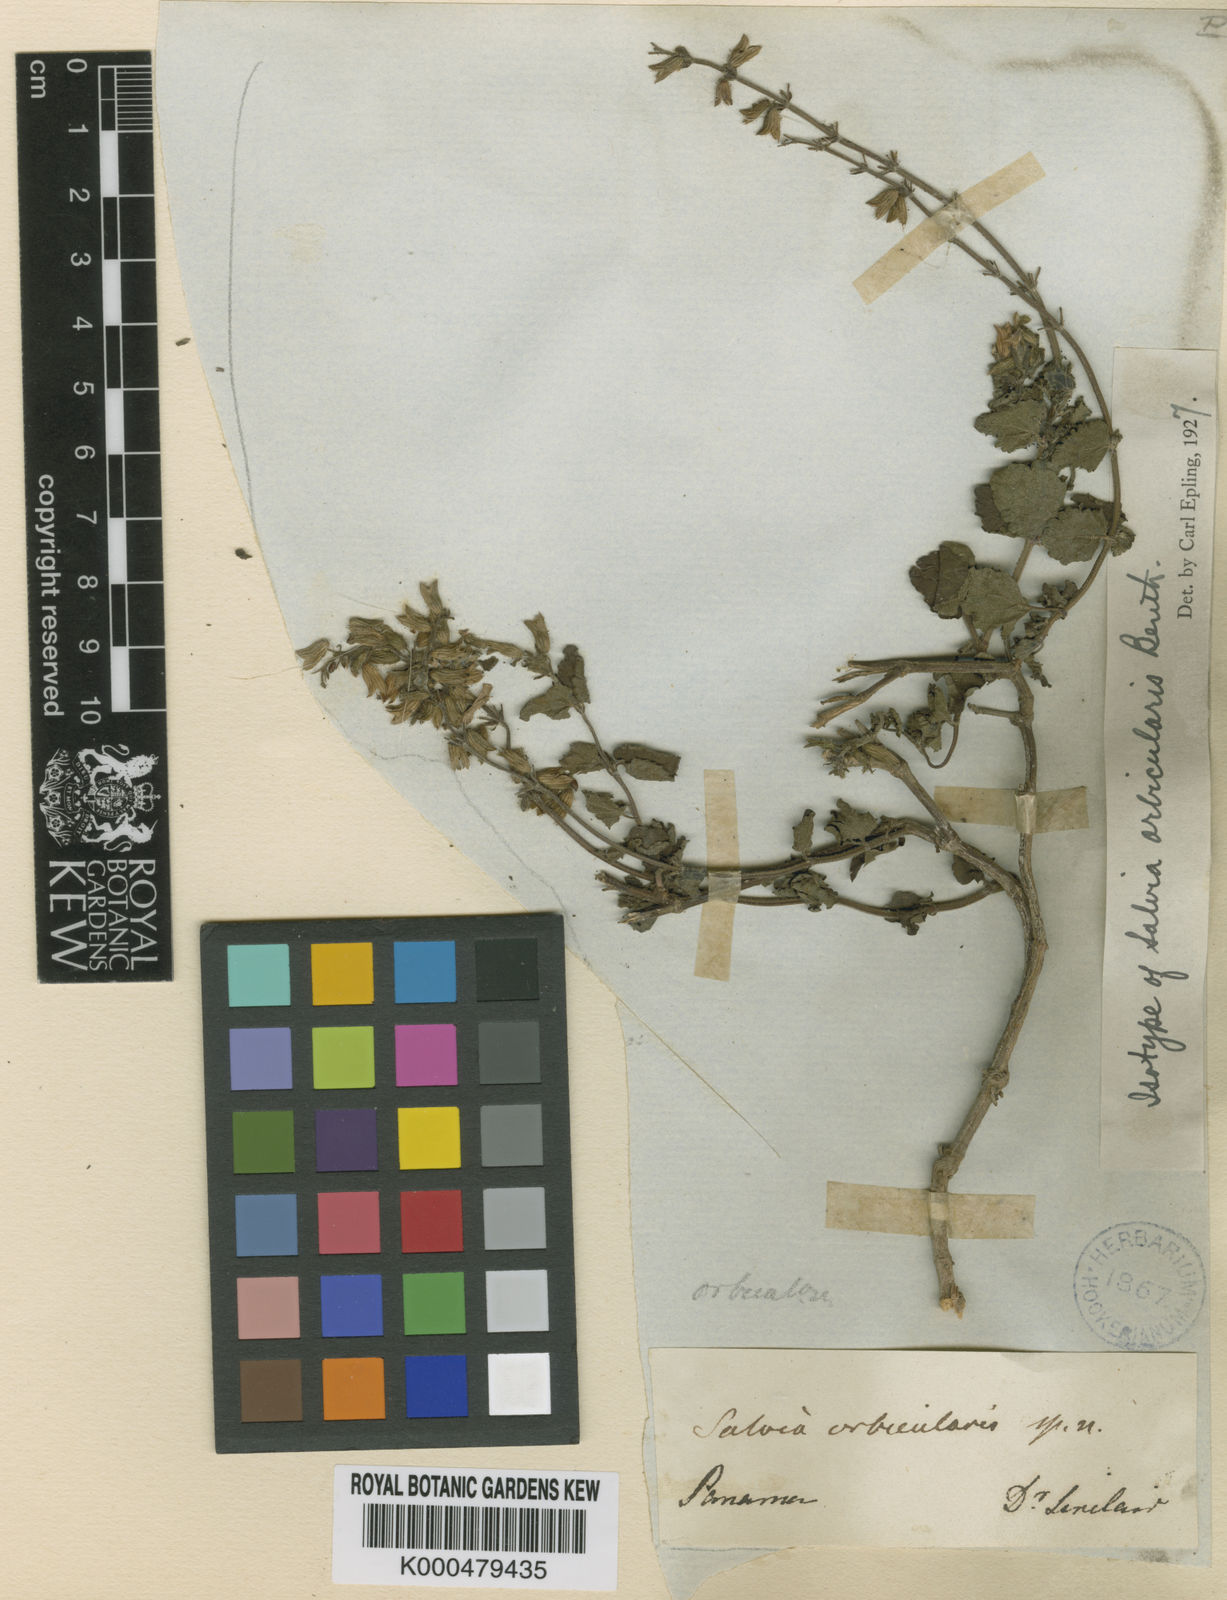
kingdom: Plantae
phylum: Tracheophyta
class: Magnoliopsida
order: Lamiales
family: Lamiaceae
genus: Salvia
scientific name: Salvia serotina
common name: Catnip
